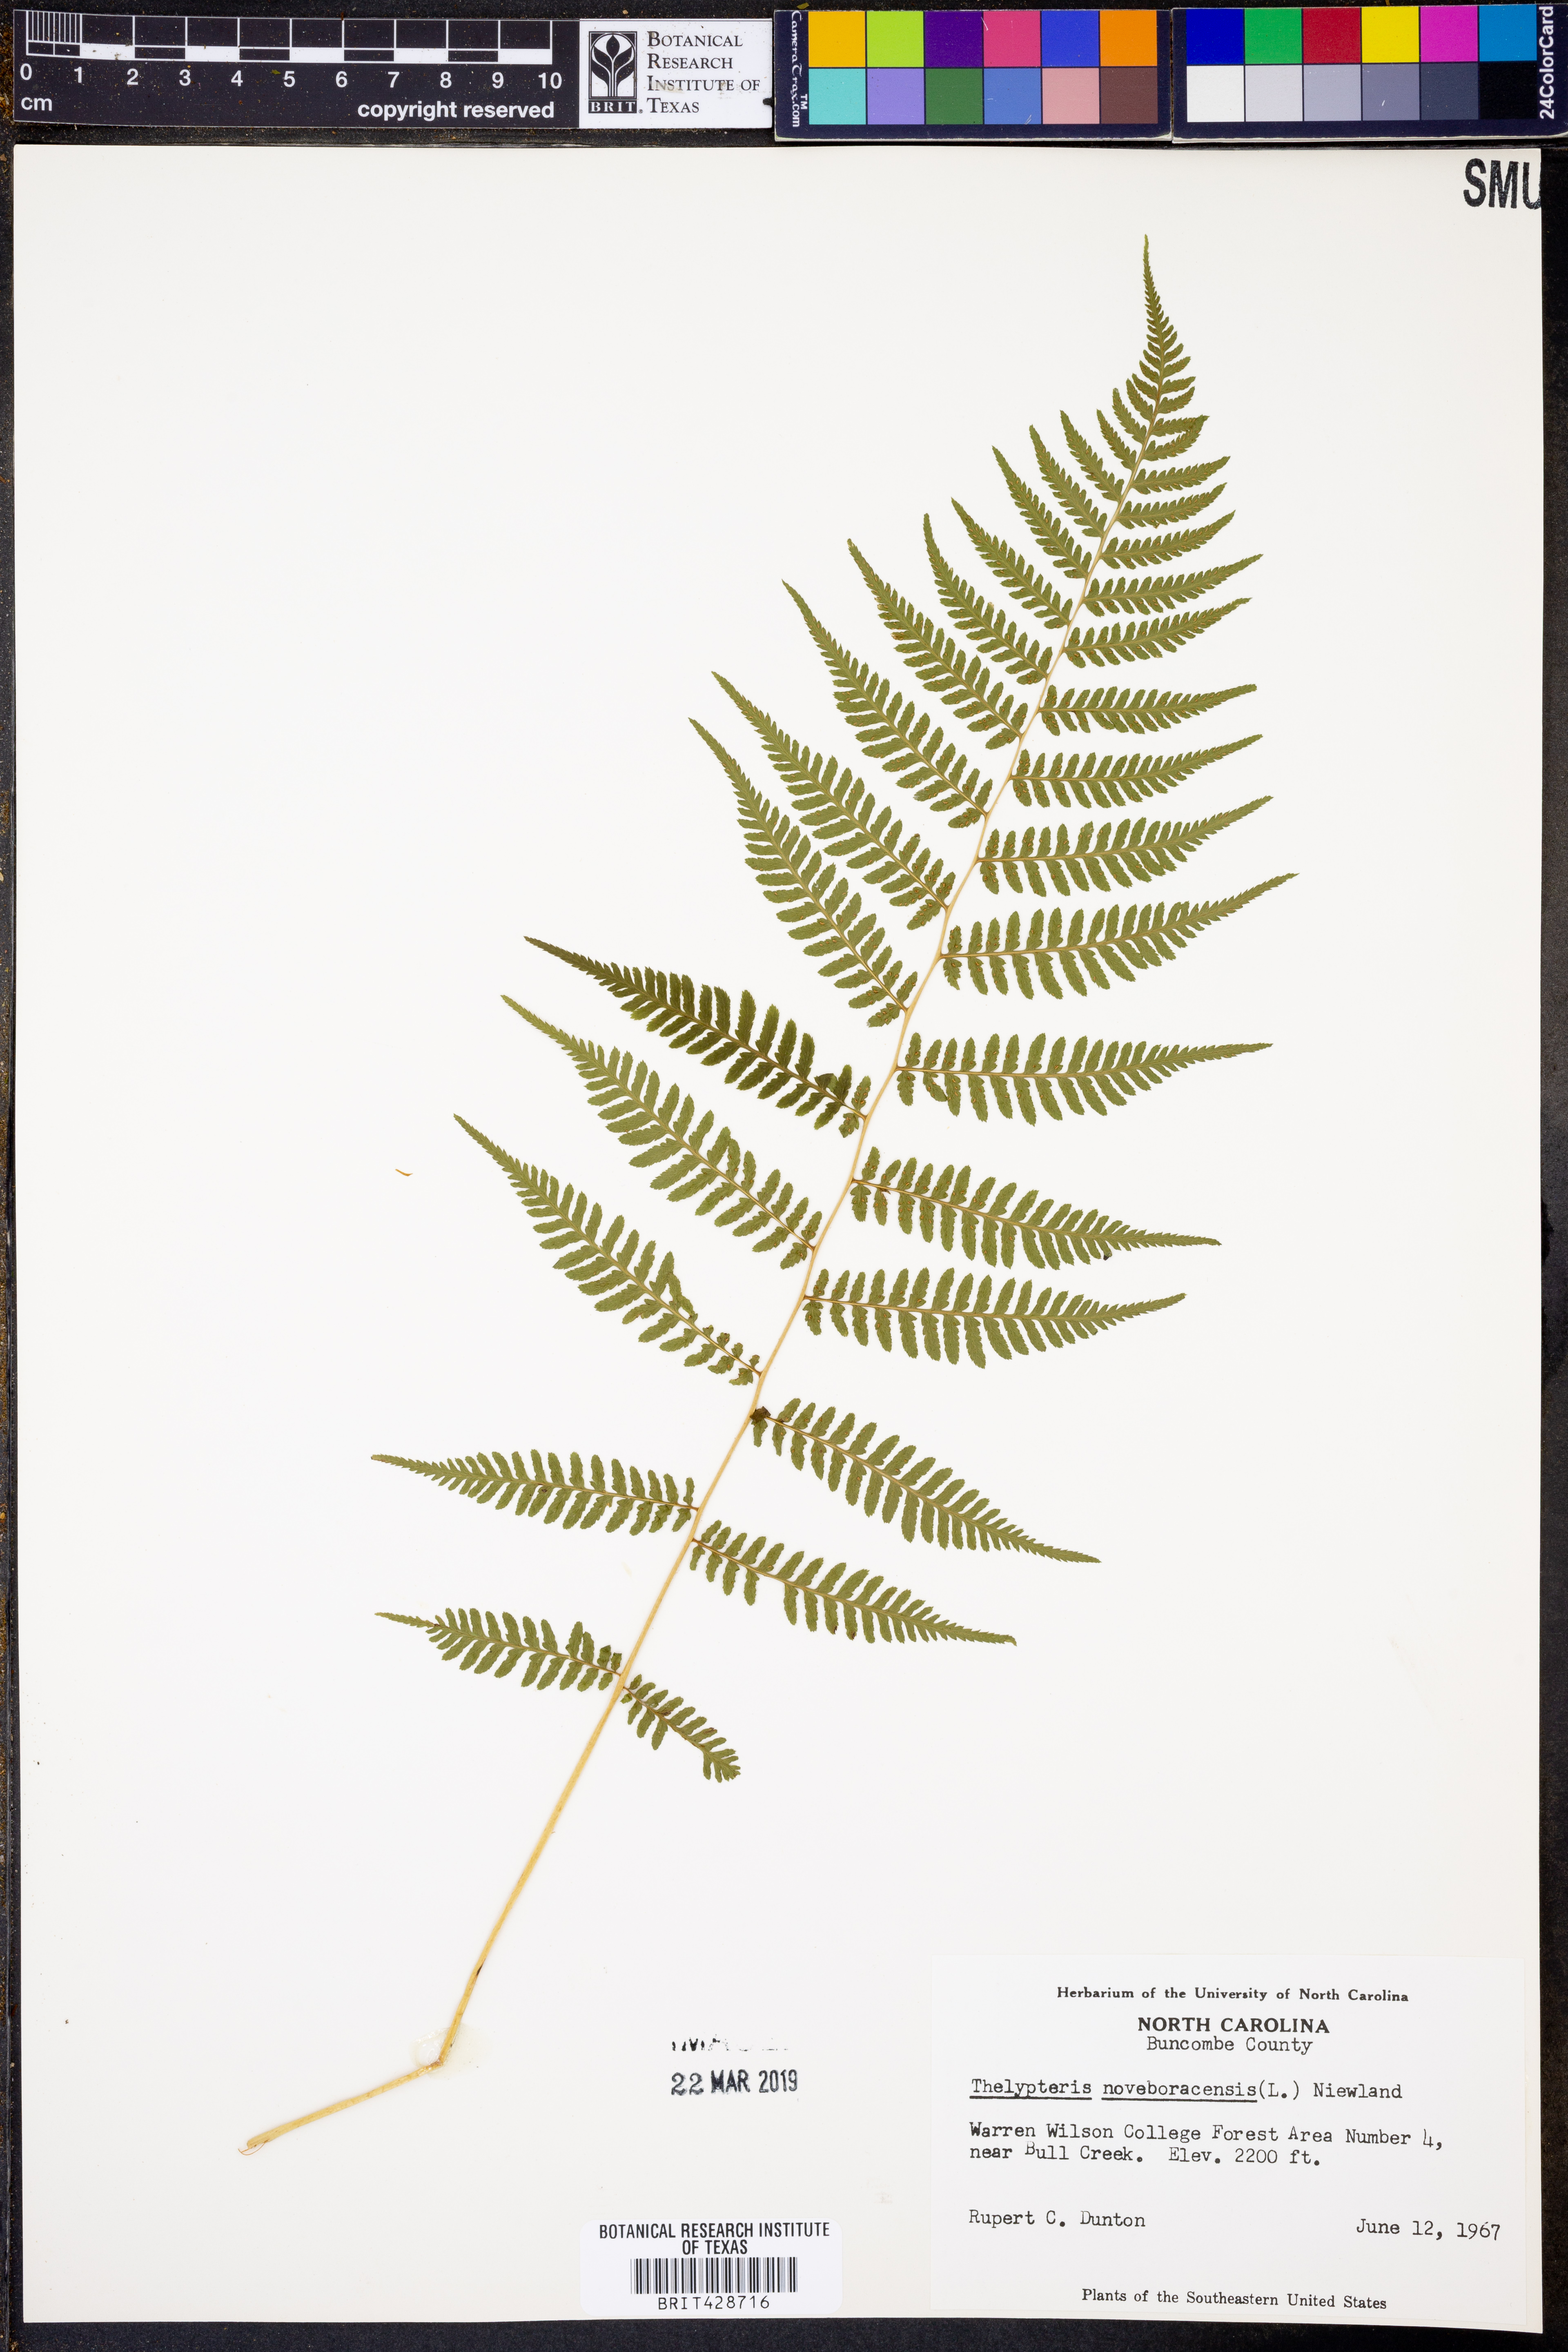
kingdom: Plantae
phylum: Tracheophyta
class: Polypodiopsida
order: Polypodiales
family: Thelypteridaceae
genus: Amauropelta
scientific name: Amauropelta noveboracensis
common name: New york fern
